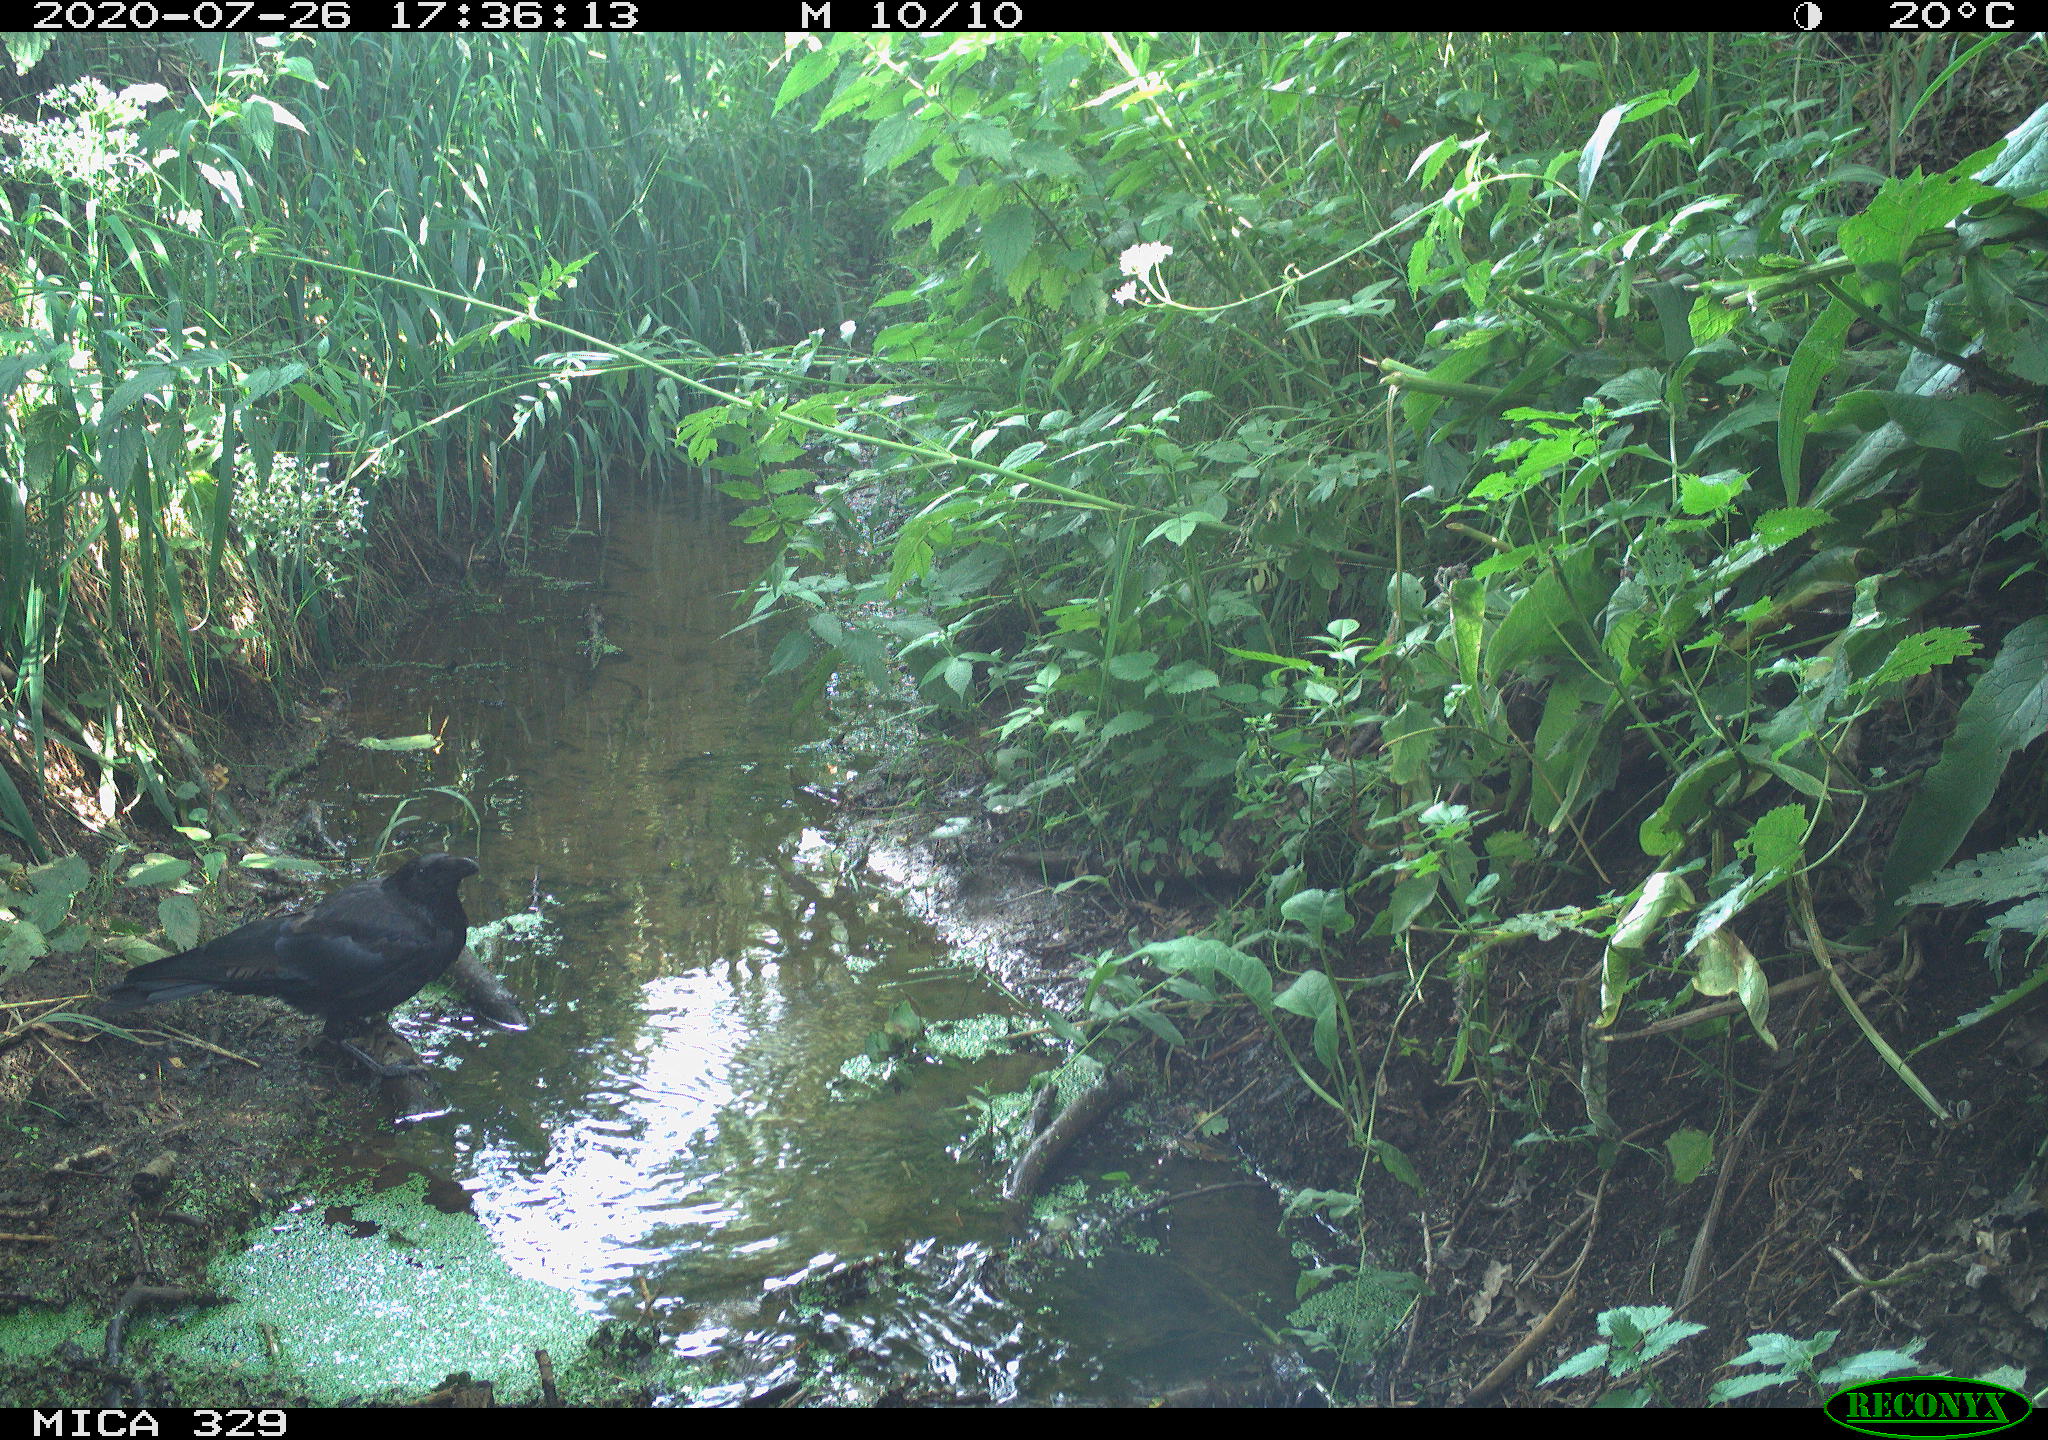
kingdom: Animalia
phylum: Chordata
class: Aves
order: Passeriformes
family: Corvidae
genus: Corvus
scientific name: Corvus corax
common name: Common raven
